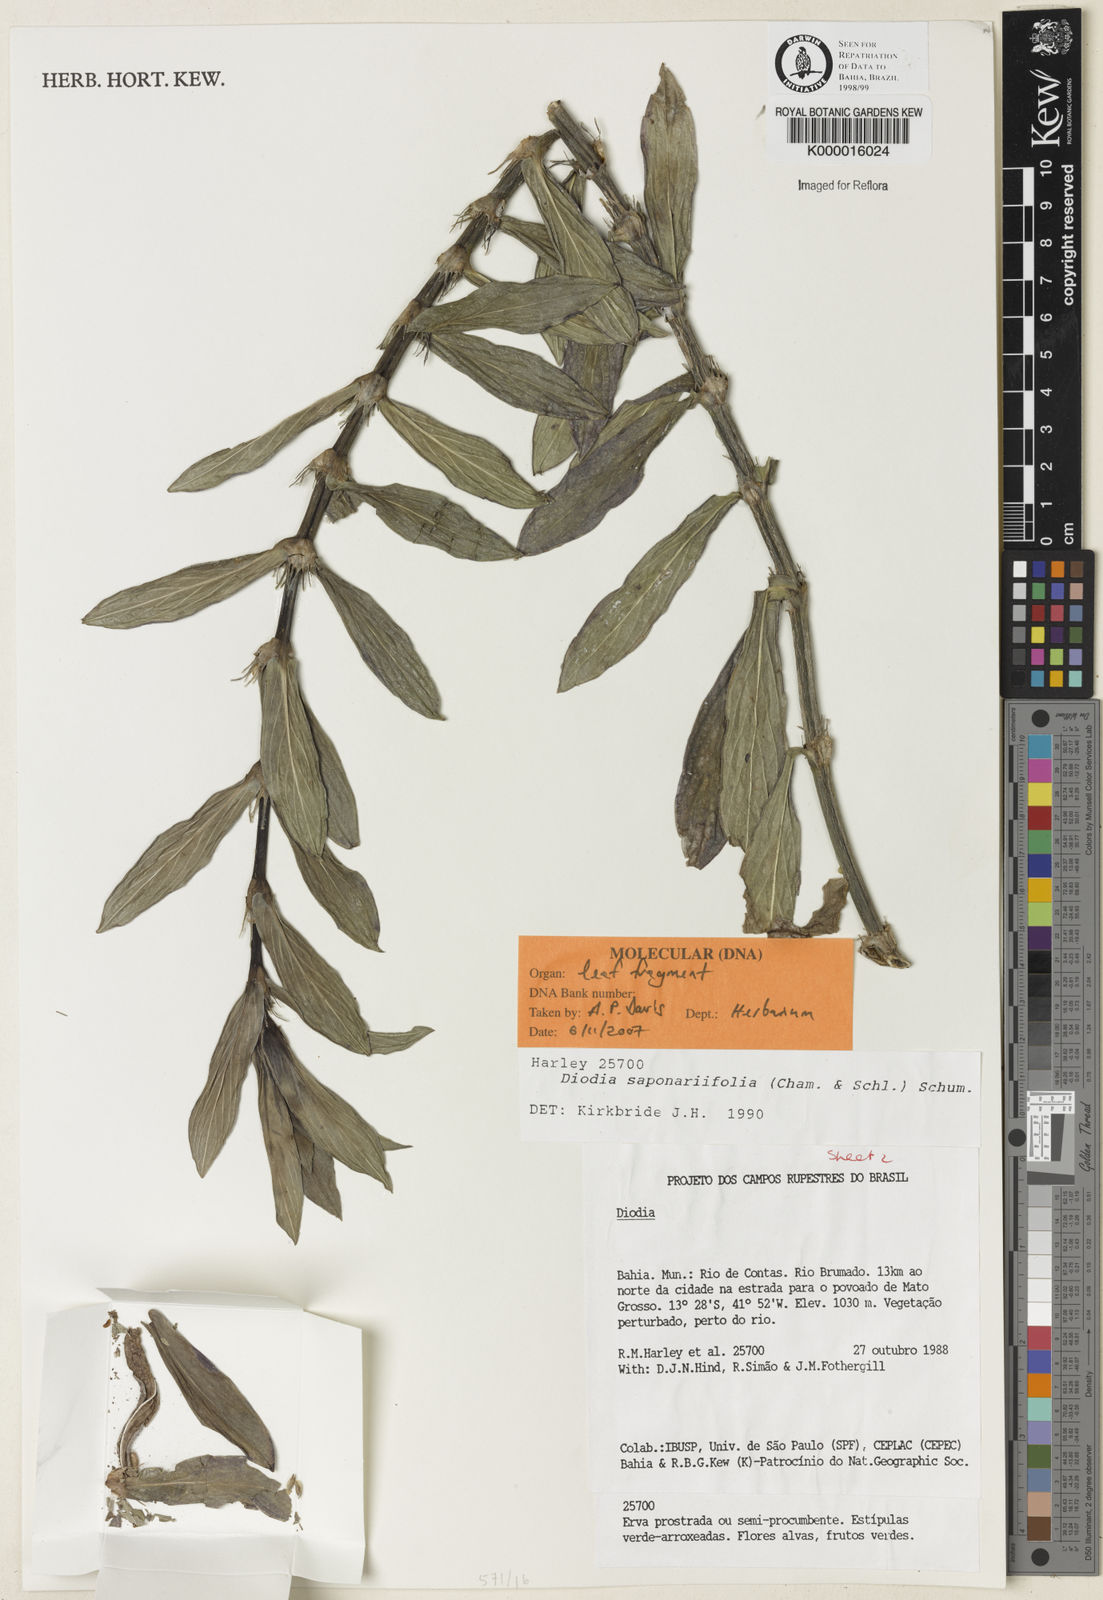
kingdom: Plantae
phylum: Tracheophyta
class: Magnoliopsida
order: Gentianales
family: Rubiaceae
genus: Diodia
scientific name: Diodia saponariifolia
